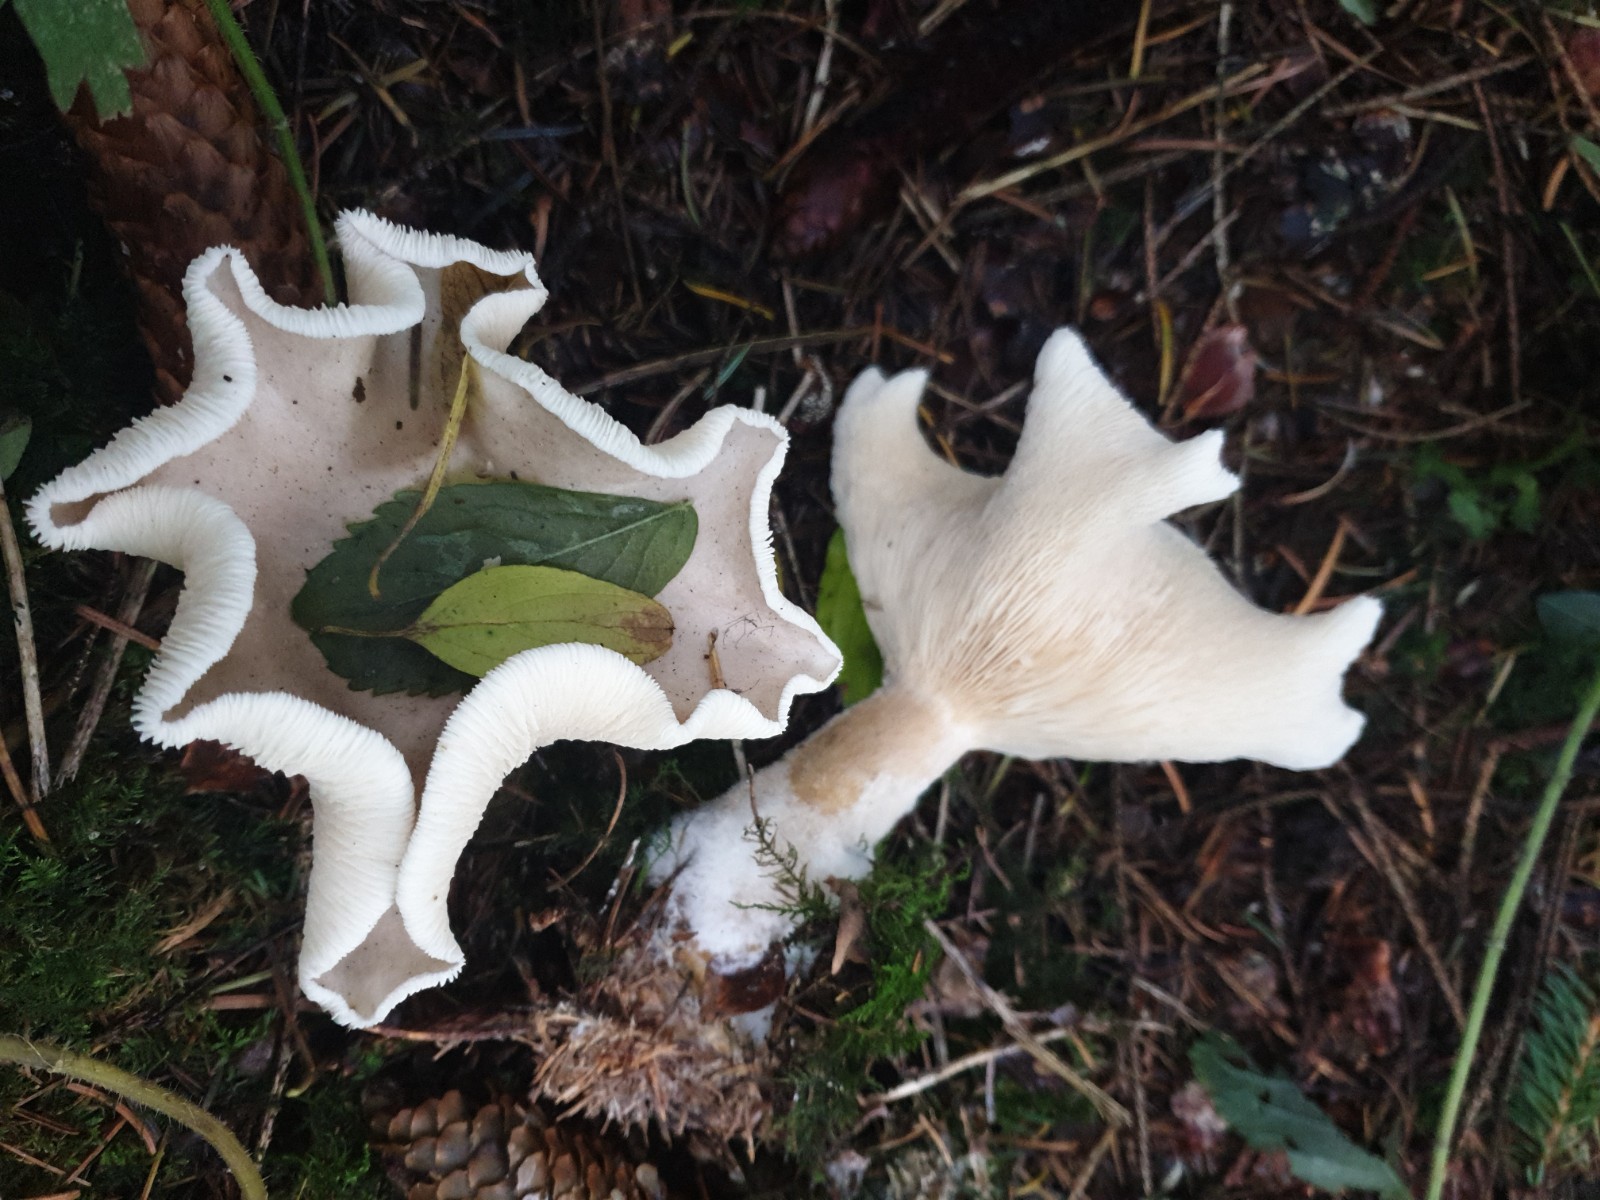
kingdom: Fungi
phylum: Basidiomycota
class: Agaricomycetes
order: Agaricales
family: Tricholomataceae
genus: Clitocybe
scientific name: Clitocybe nebularis
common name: tåge-tragthat
